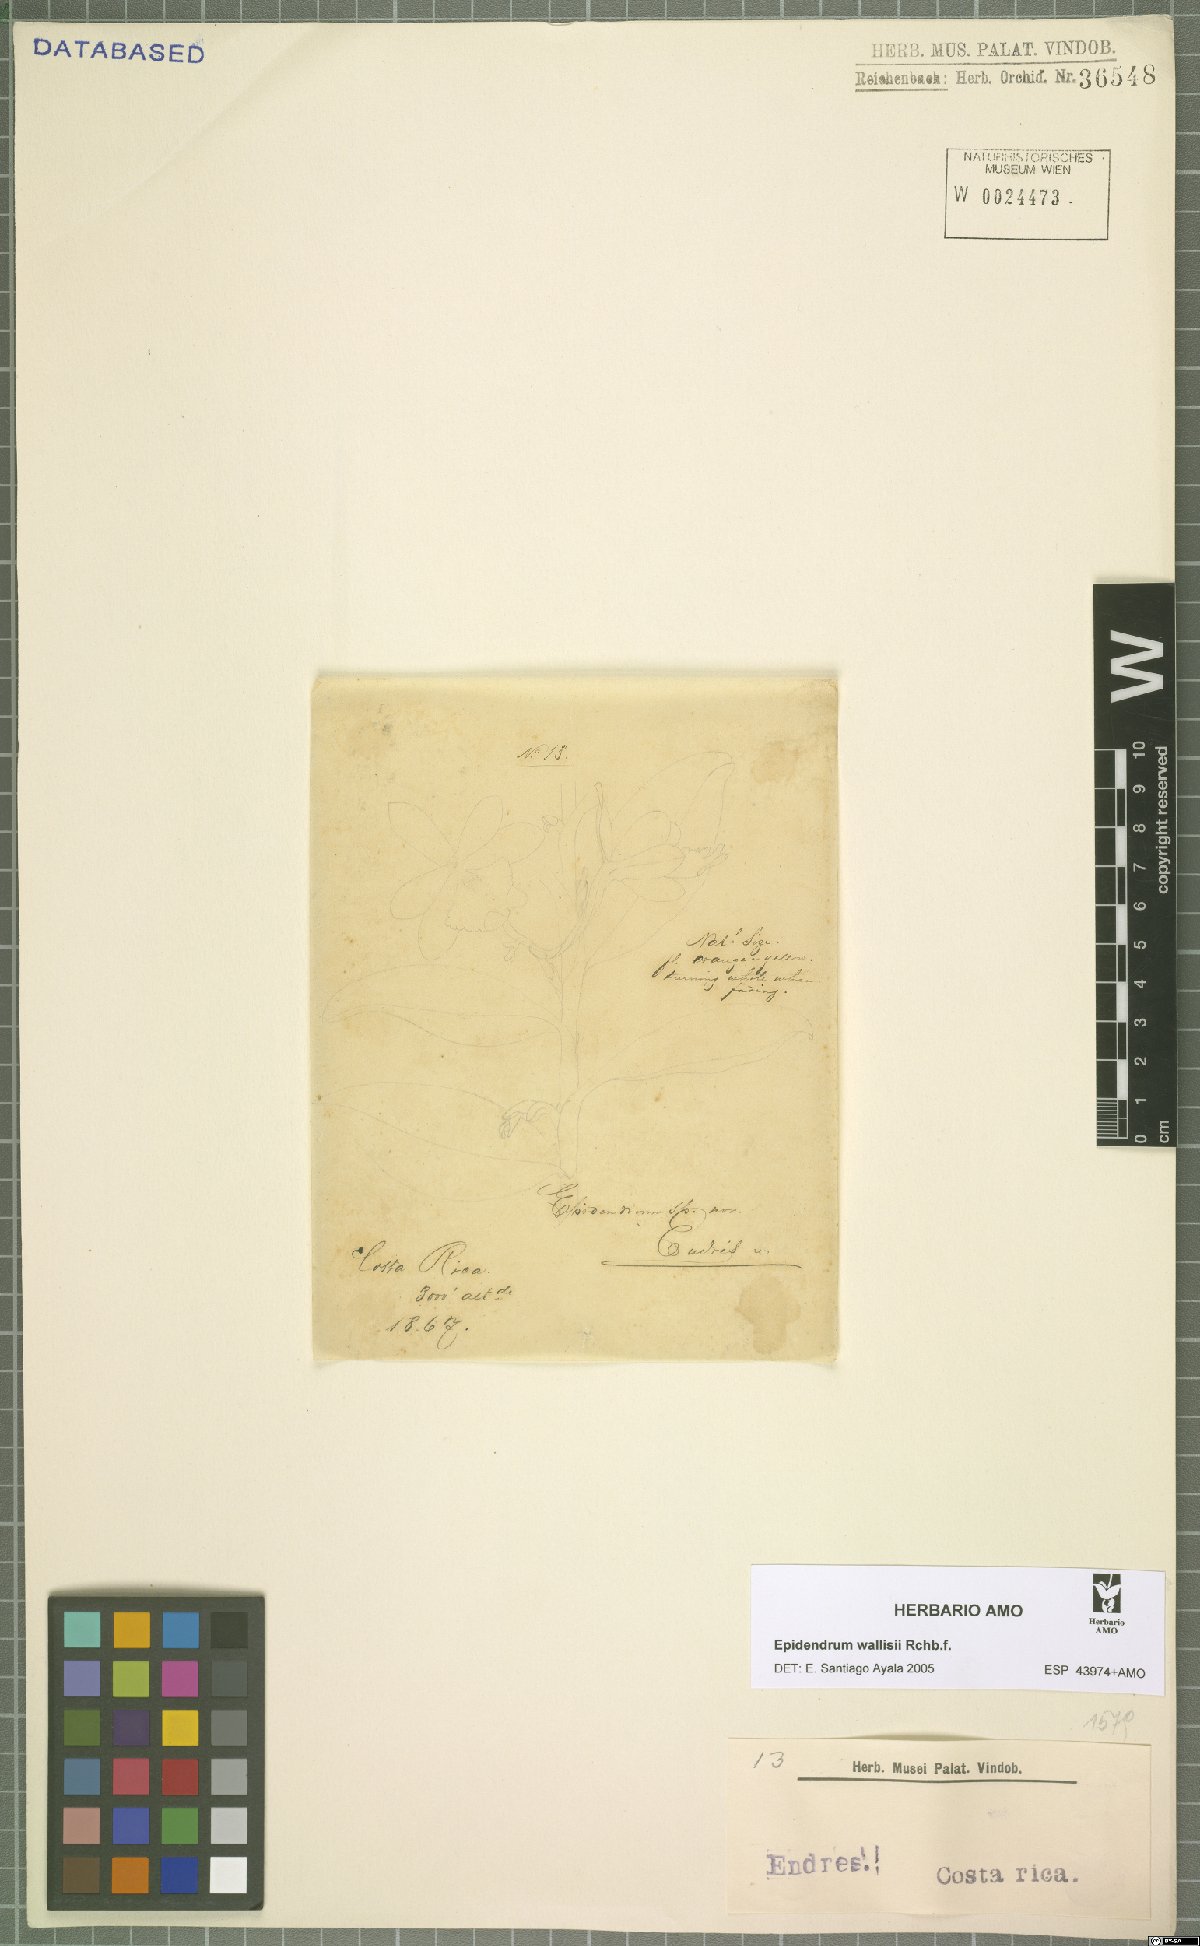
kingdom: Plantae
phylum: Tracheophyta
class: Liliopsida
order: Asparagales
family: Orchidaceae
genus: Epidendrum
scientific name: Epidendrum wallisii
